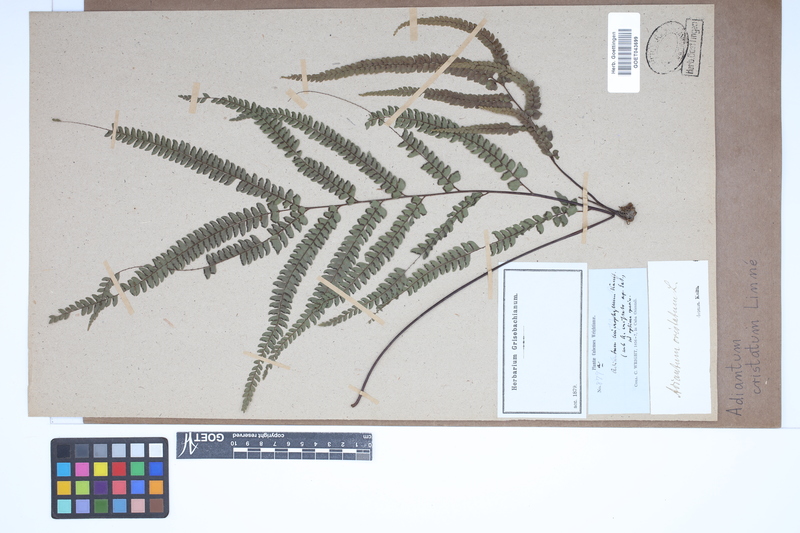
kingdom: Plantae
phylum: Tracheophyta
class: Polypodiopsida
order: Polypodiales
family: Pteridaceae
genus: Adiantum
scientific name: Adiantum pyramidale
